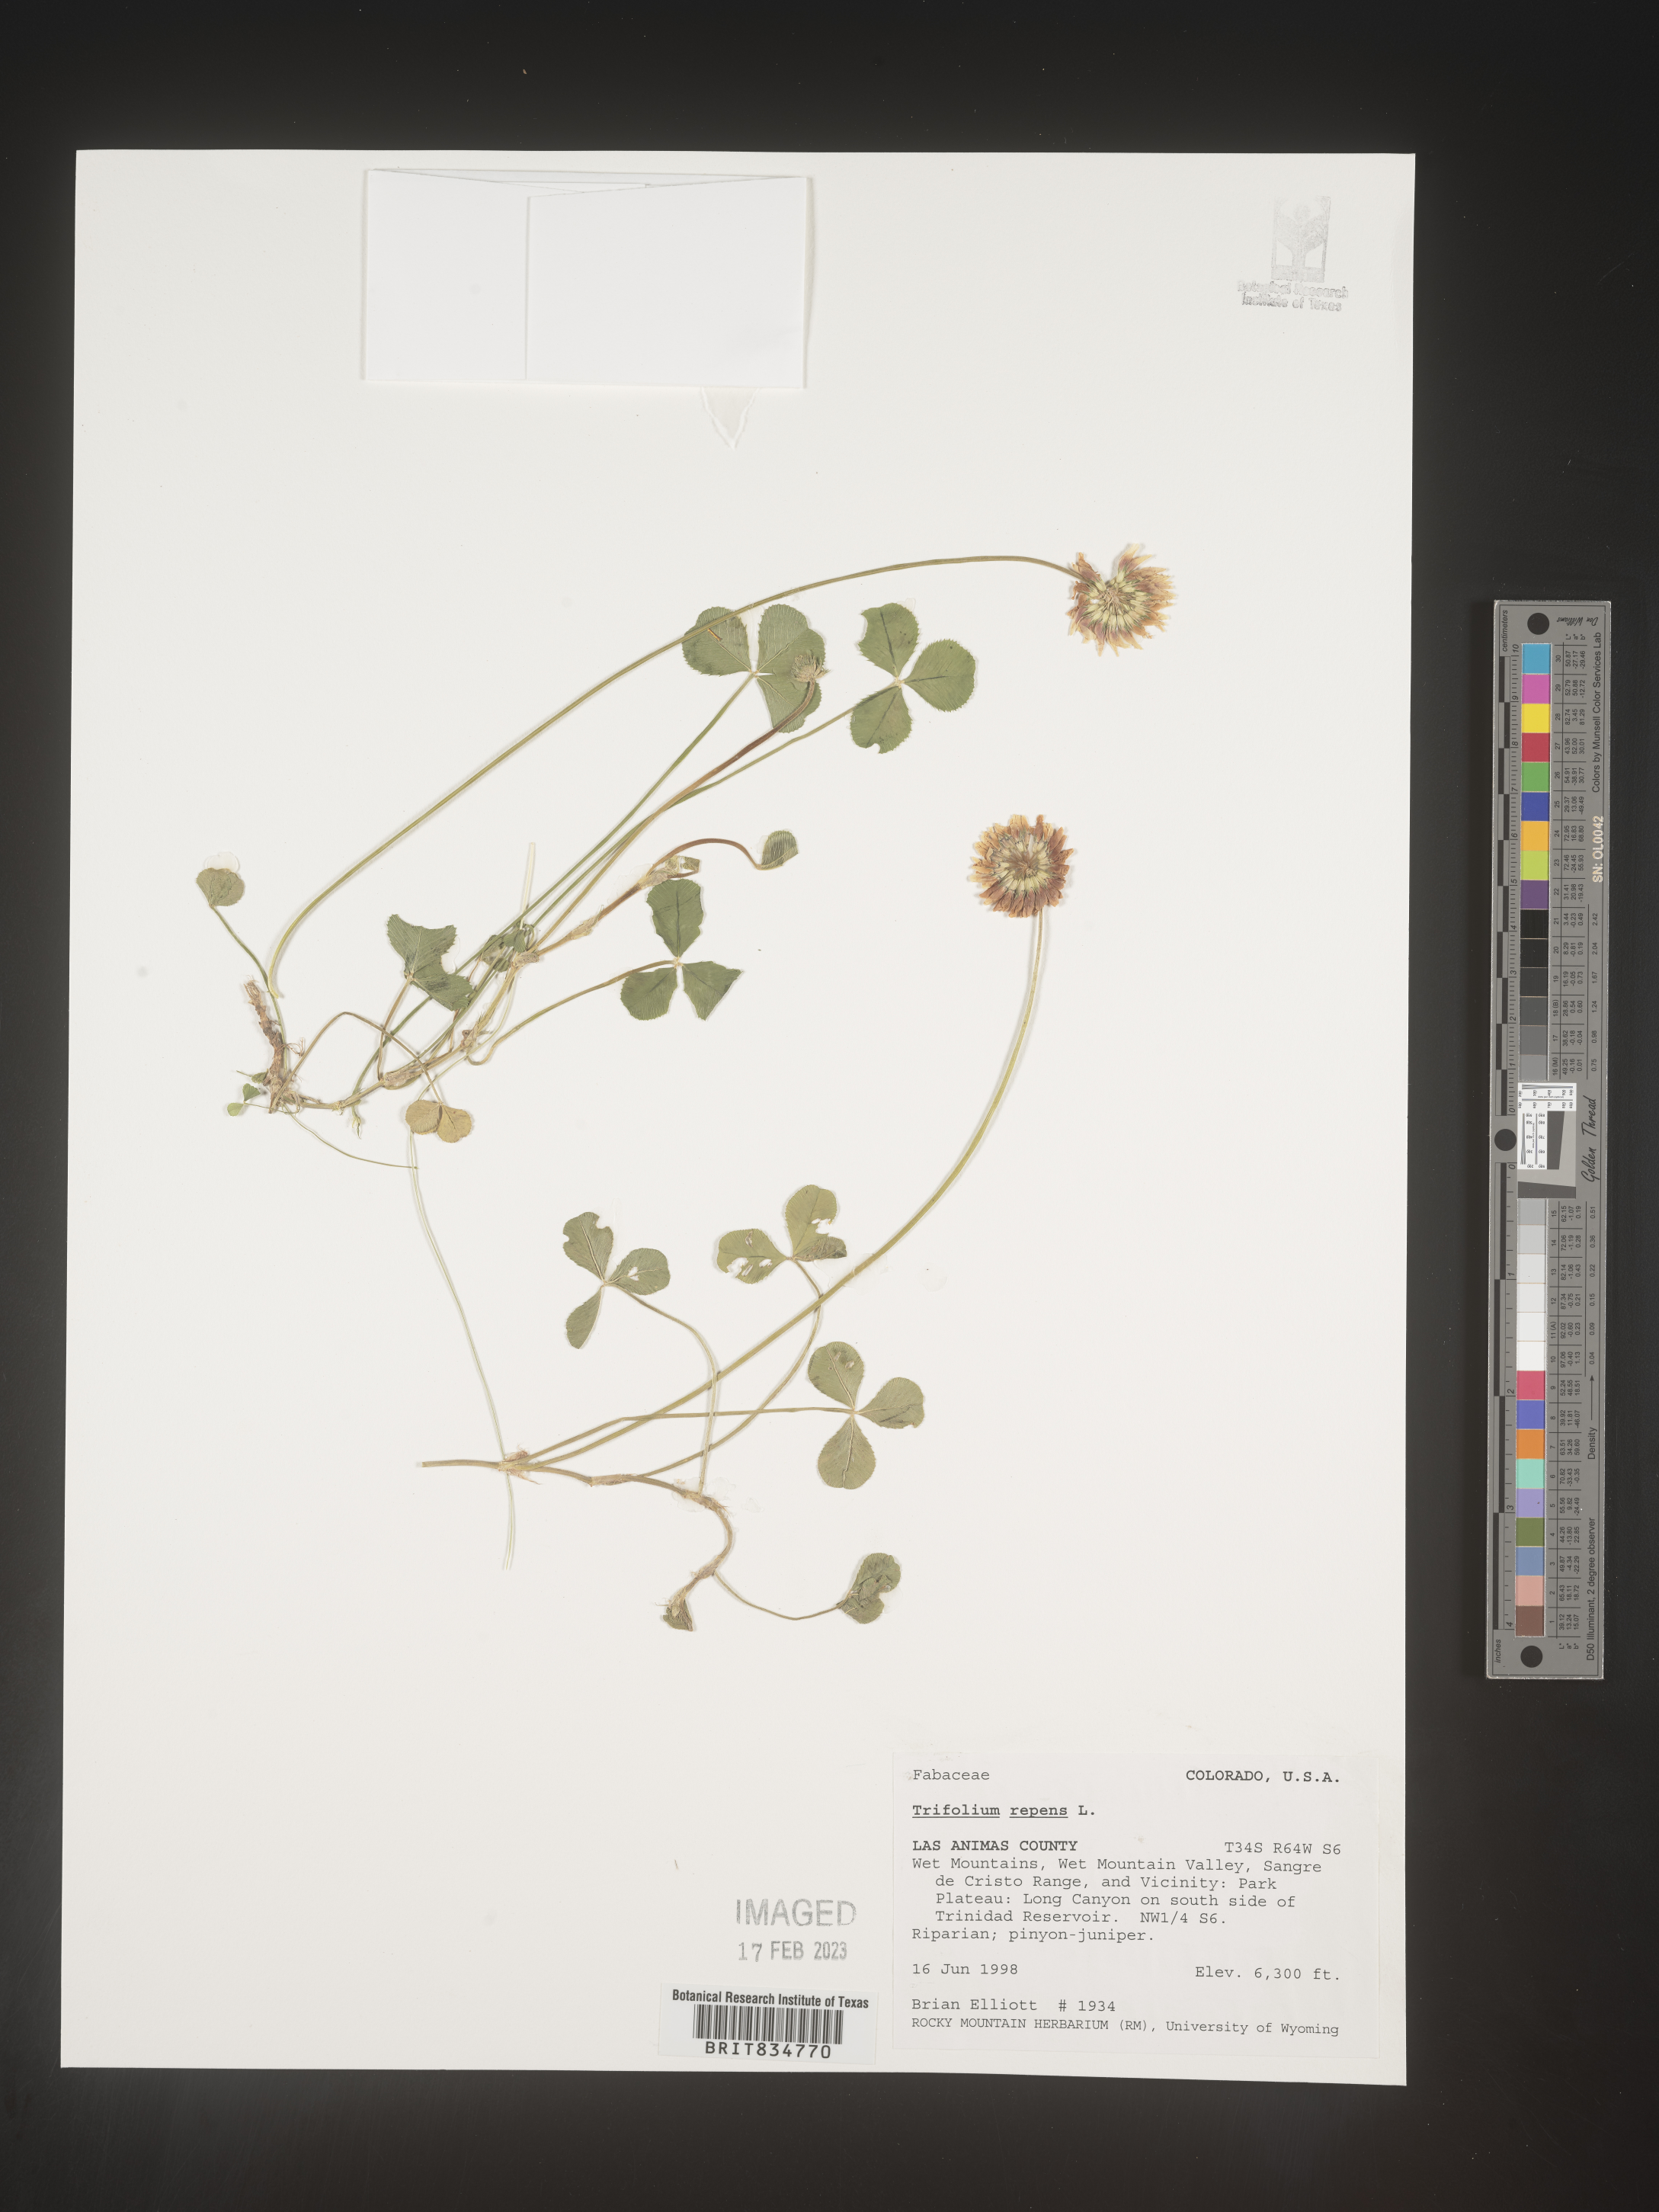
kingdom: Plantae
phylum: Tracheophyta
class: Magnoliopsida
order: Fabales
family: Fabaceae
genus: Trifolium
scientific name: Trifolium repens
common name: White clover
